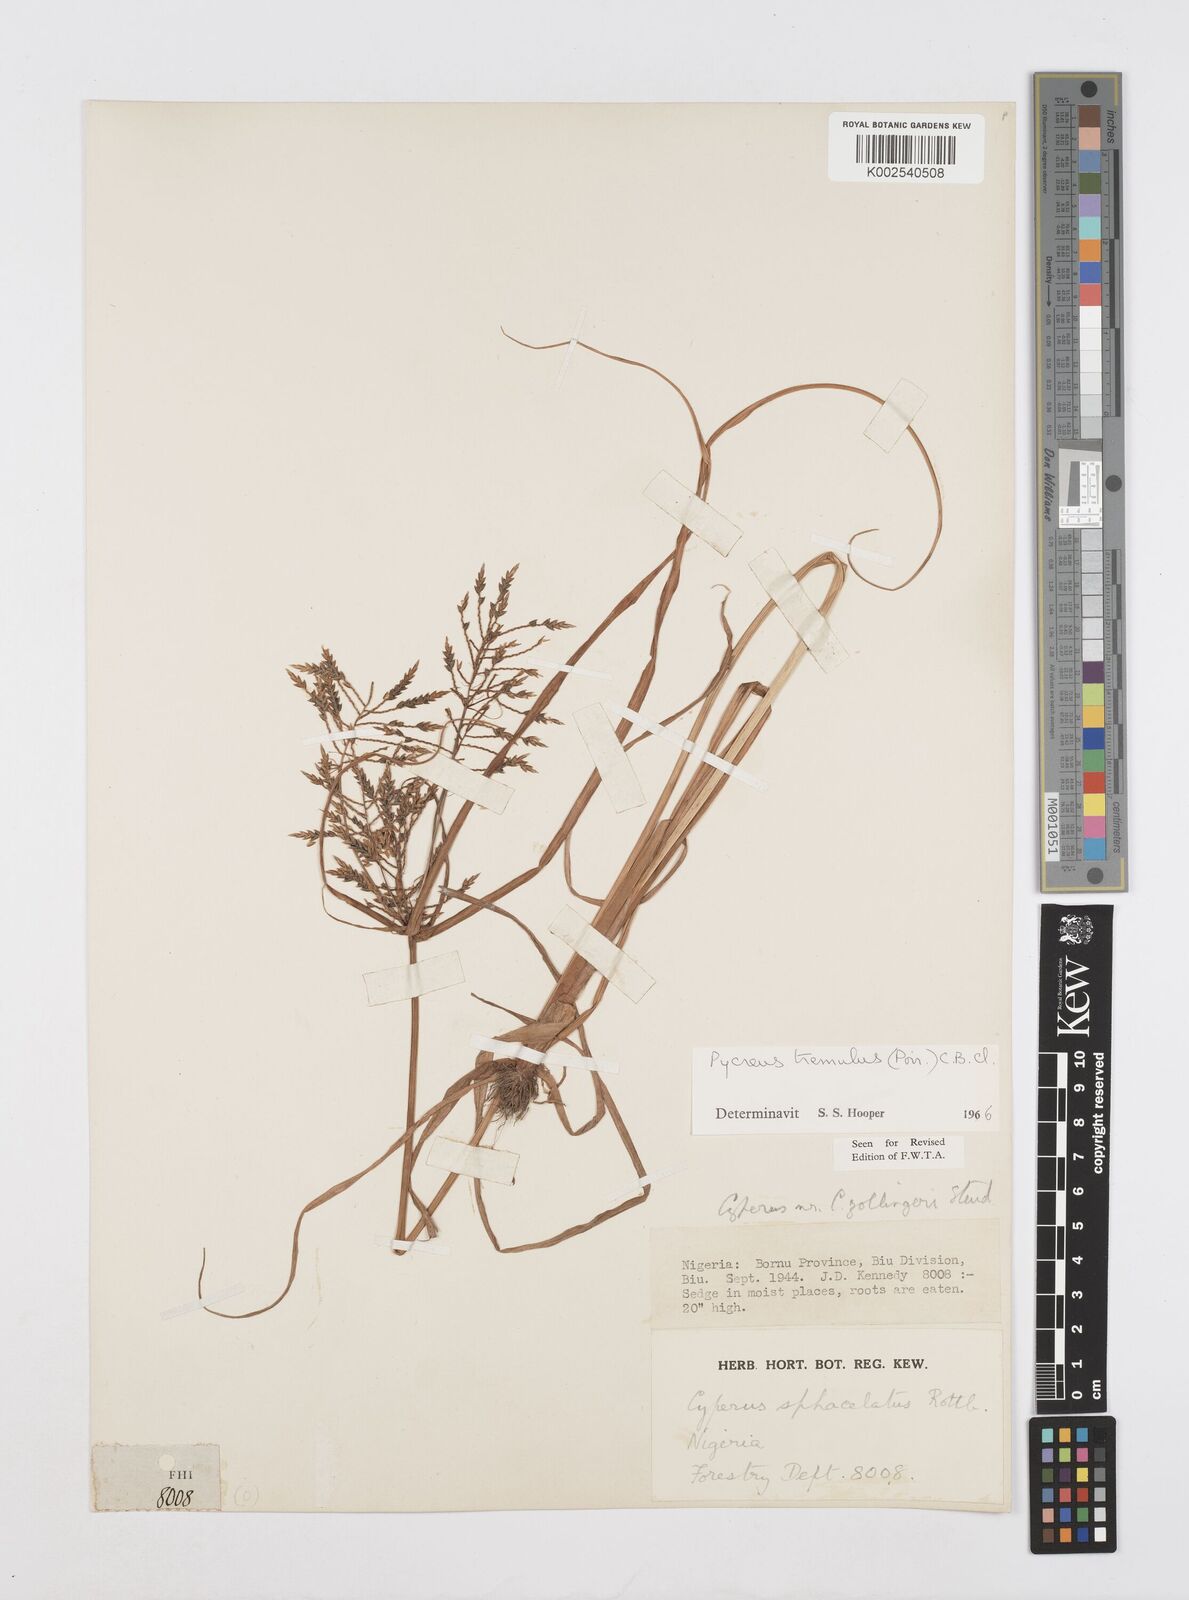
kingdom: Plantae
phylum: Tracheophyta
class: Liliopsida
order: Poales
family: Cyperaceae
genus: Cyperus
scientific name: Cyperus macrostachyos
